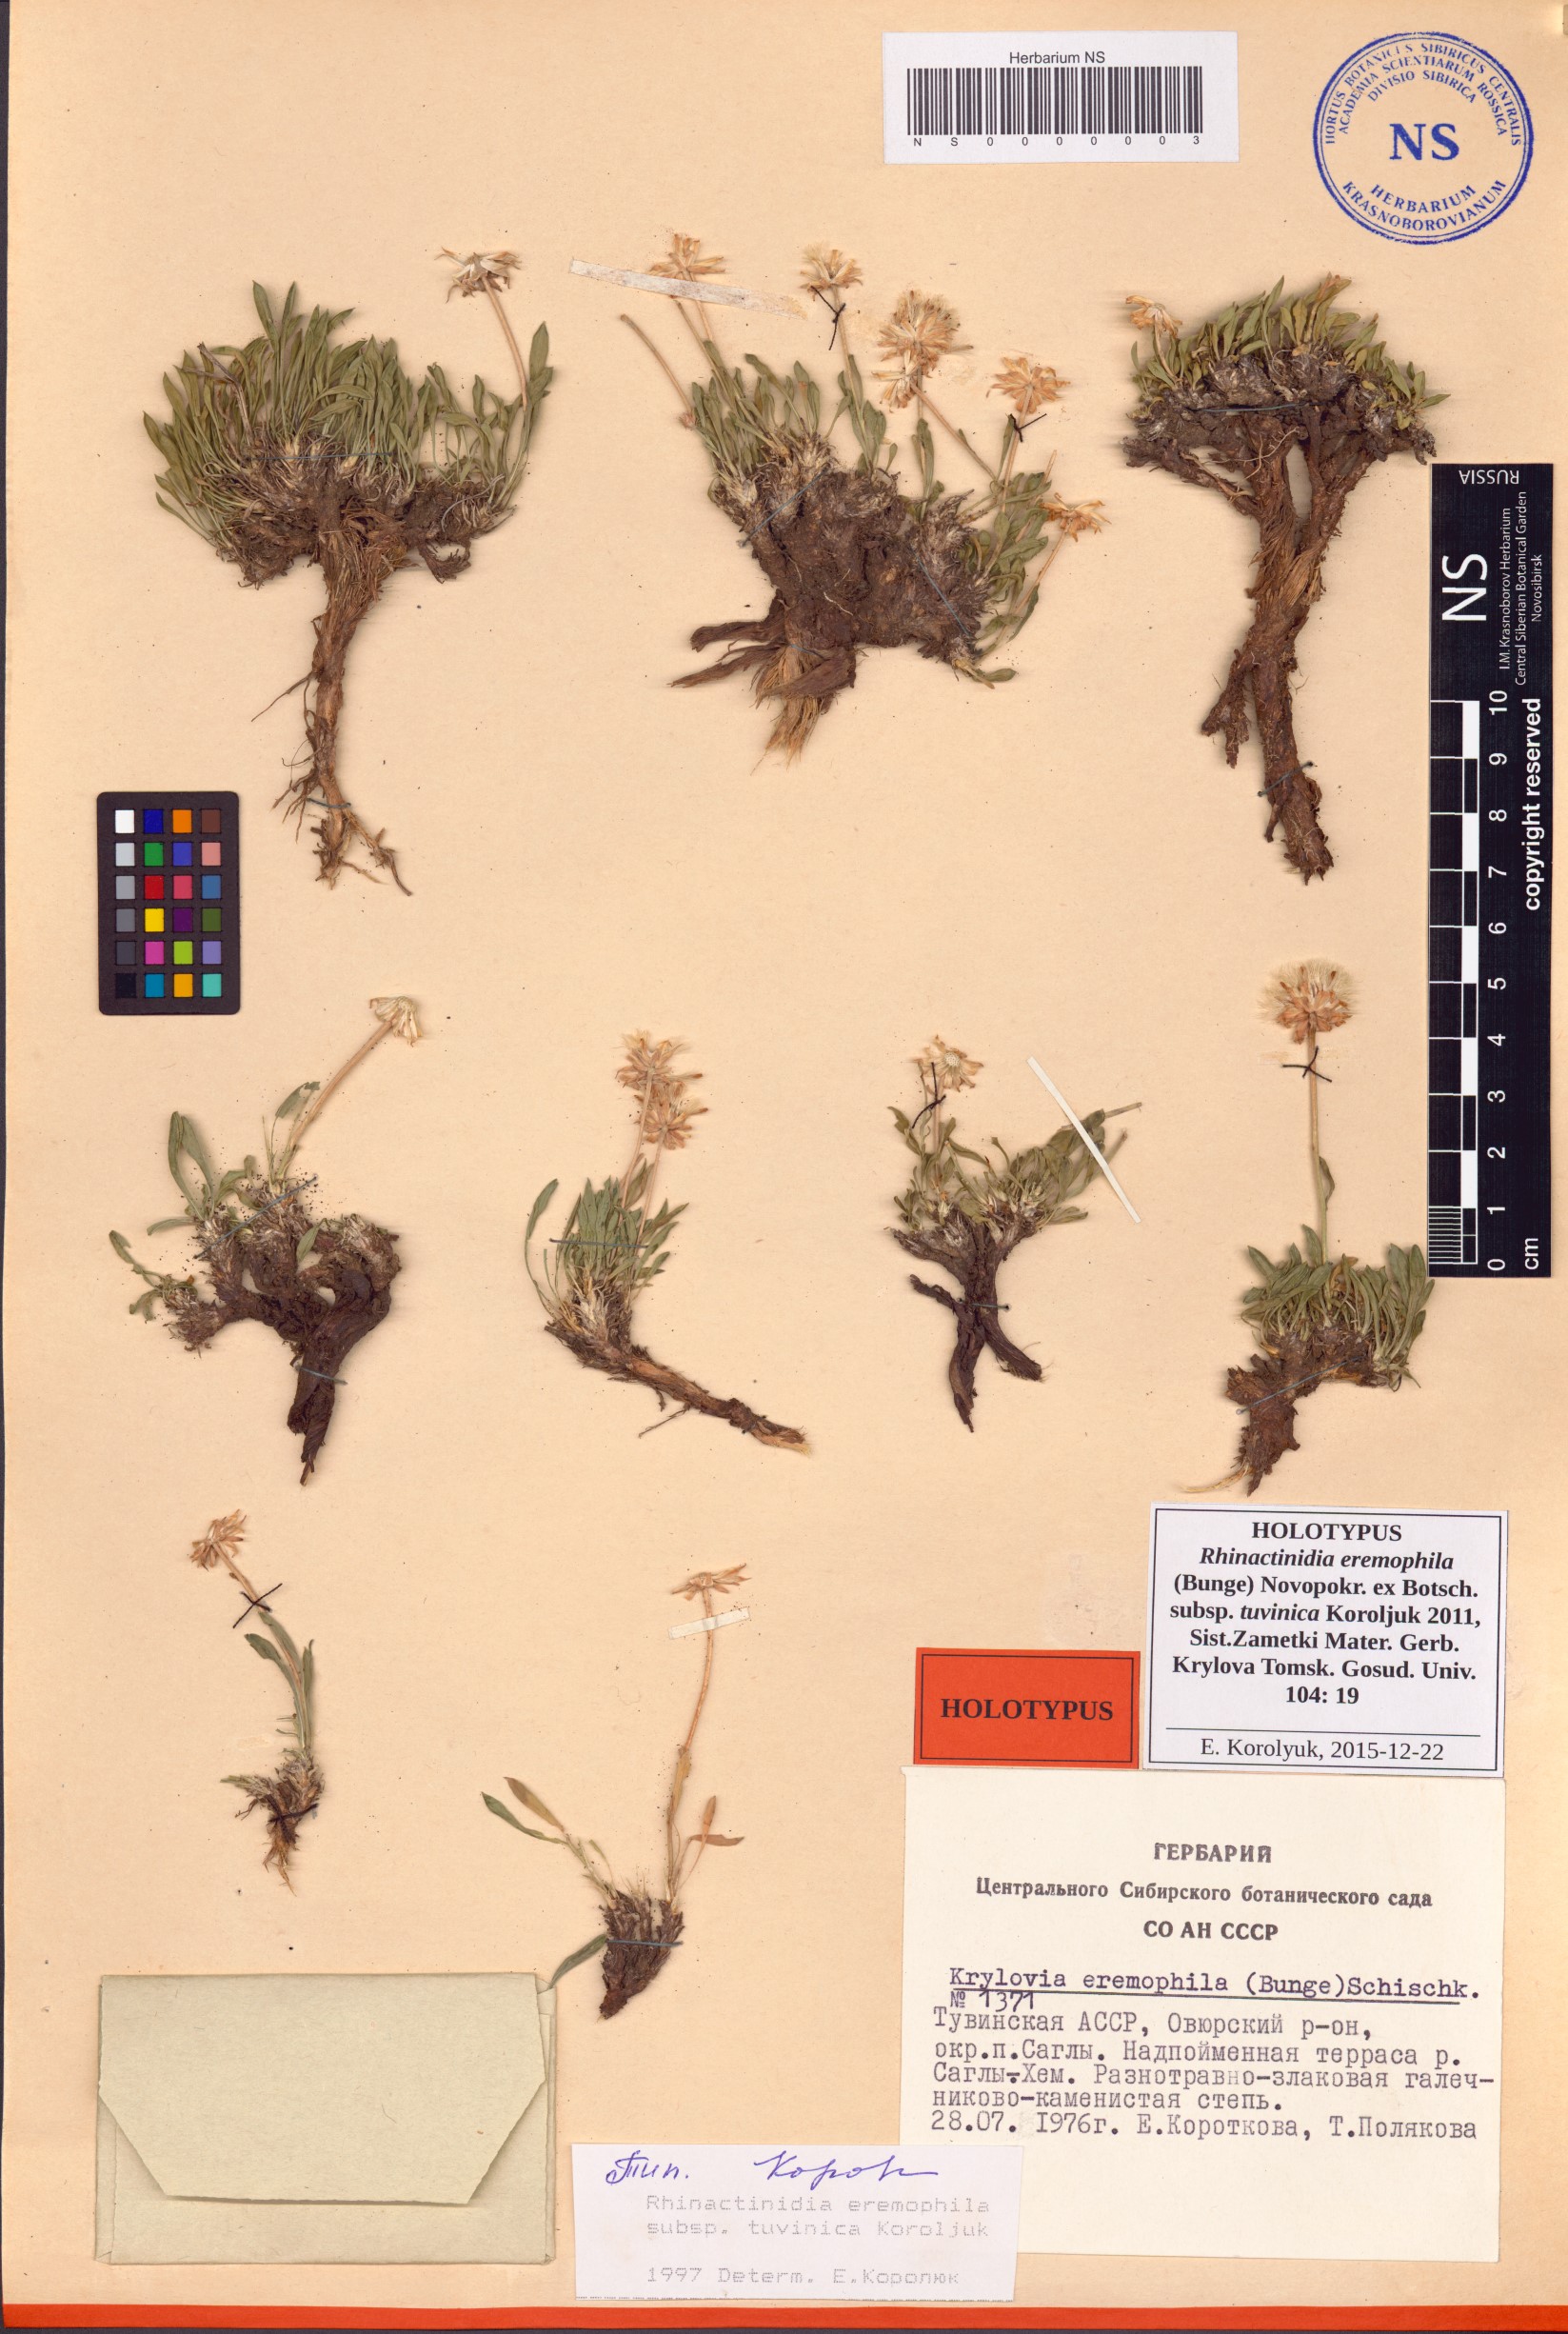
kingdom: Plantae
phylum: Tracheophyta
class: Magnoliopsida
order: Asterales
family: Asteraceae
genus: Rhinactinidia
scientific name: Rhinactinidia eremophila
